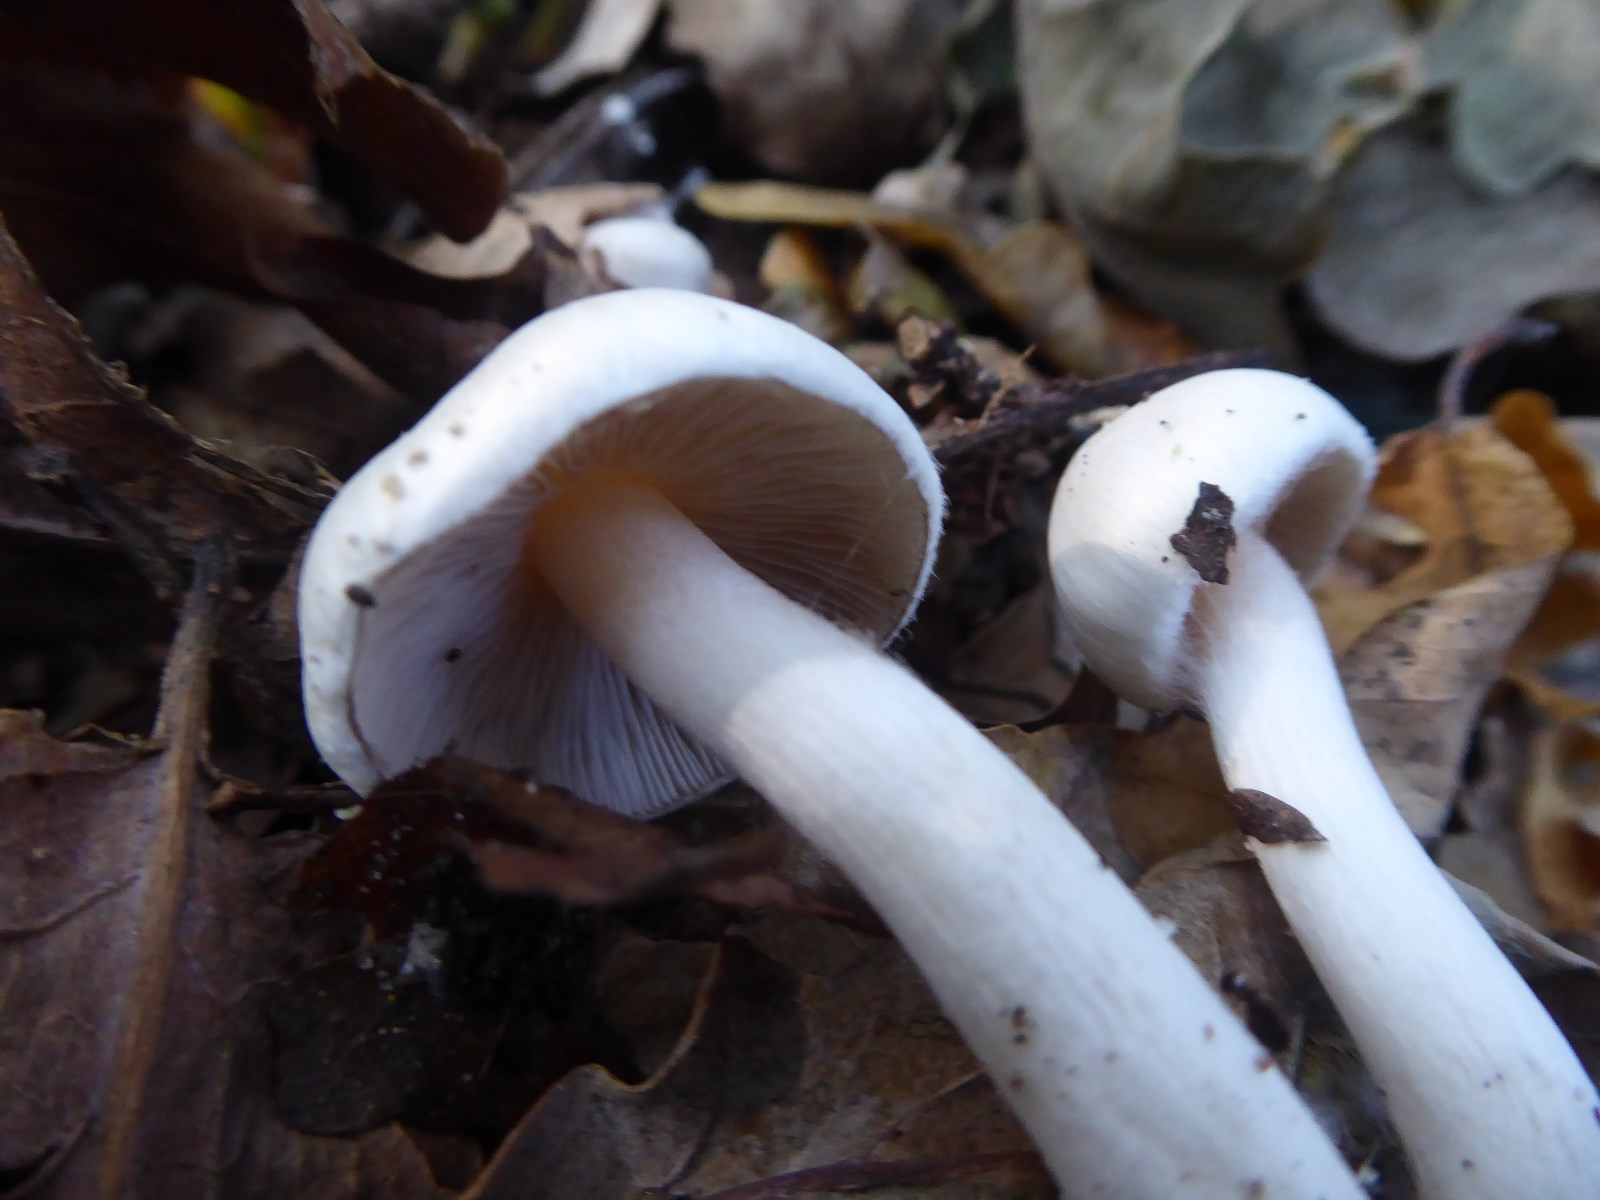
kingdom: Fungi
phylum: Basidiomycota
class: Agaricomycetes
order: Agaricales
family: Inocybaceae
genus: Inocybe
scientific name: Inocybe
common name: almindelig trævlhat
